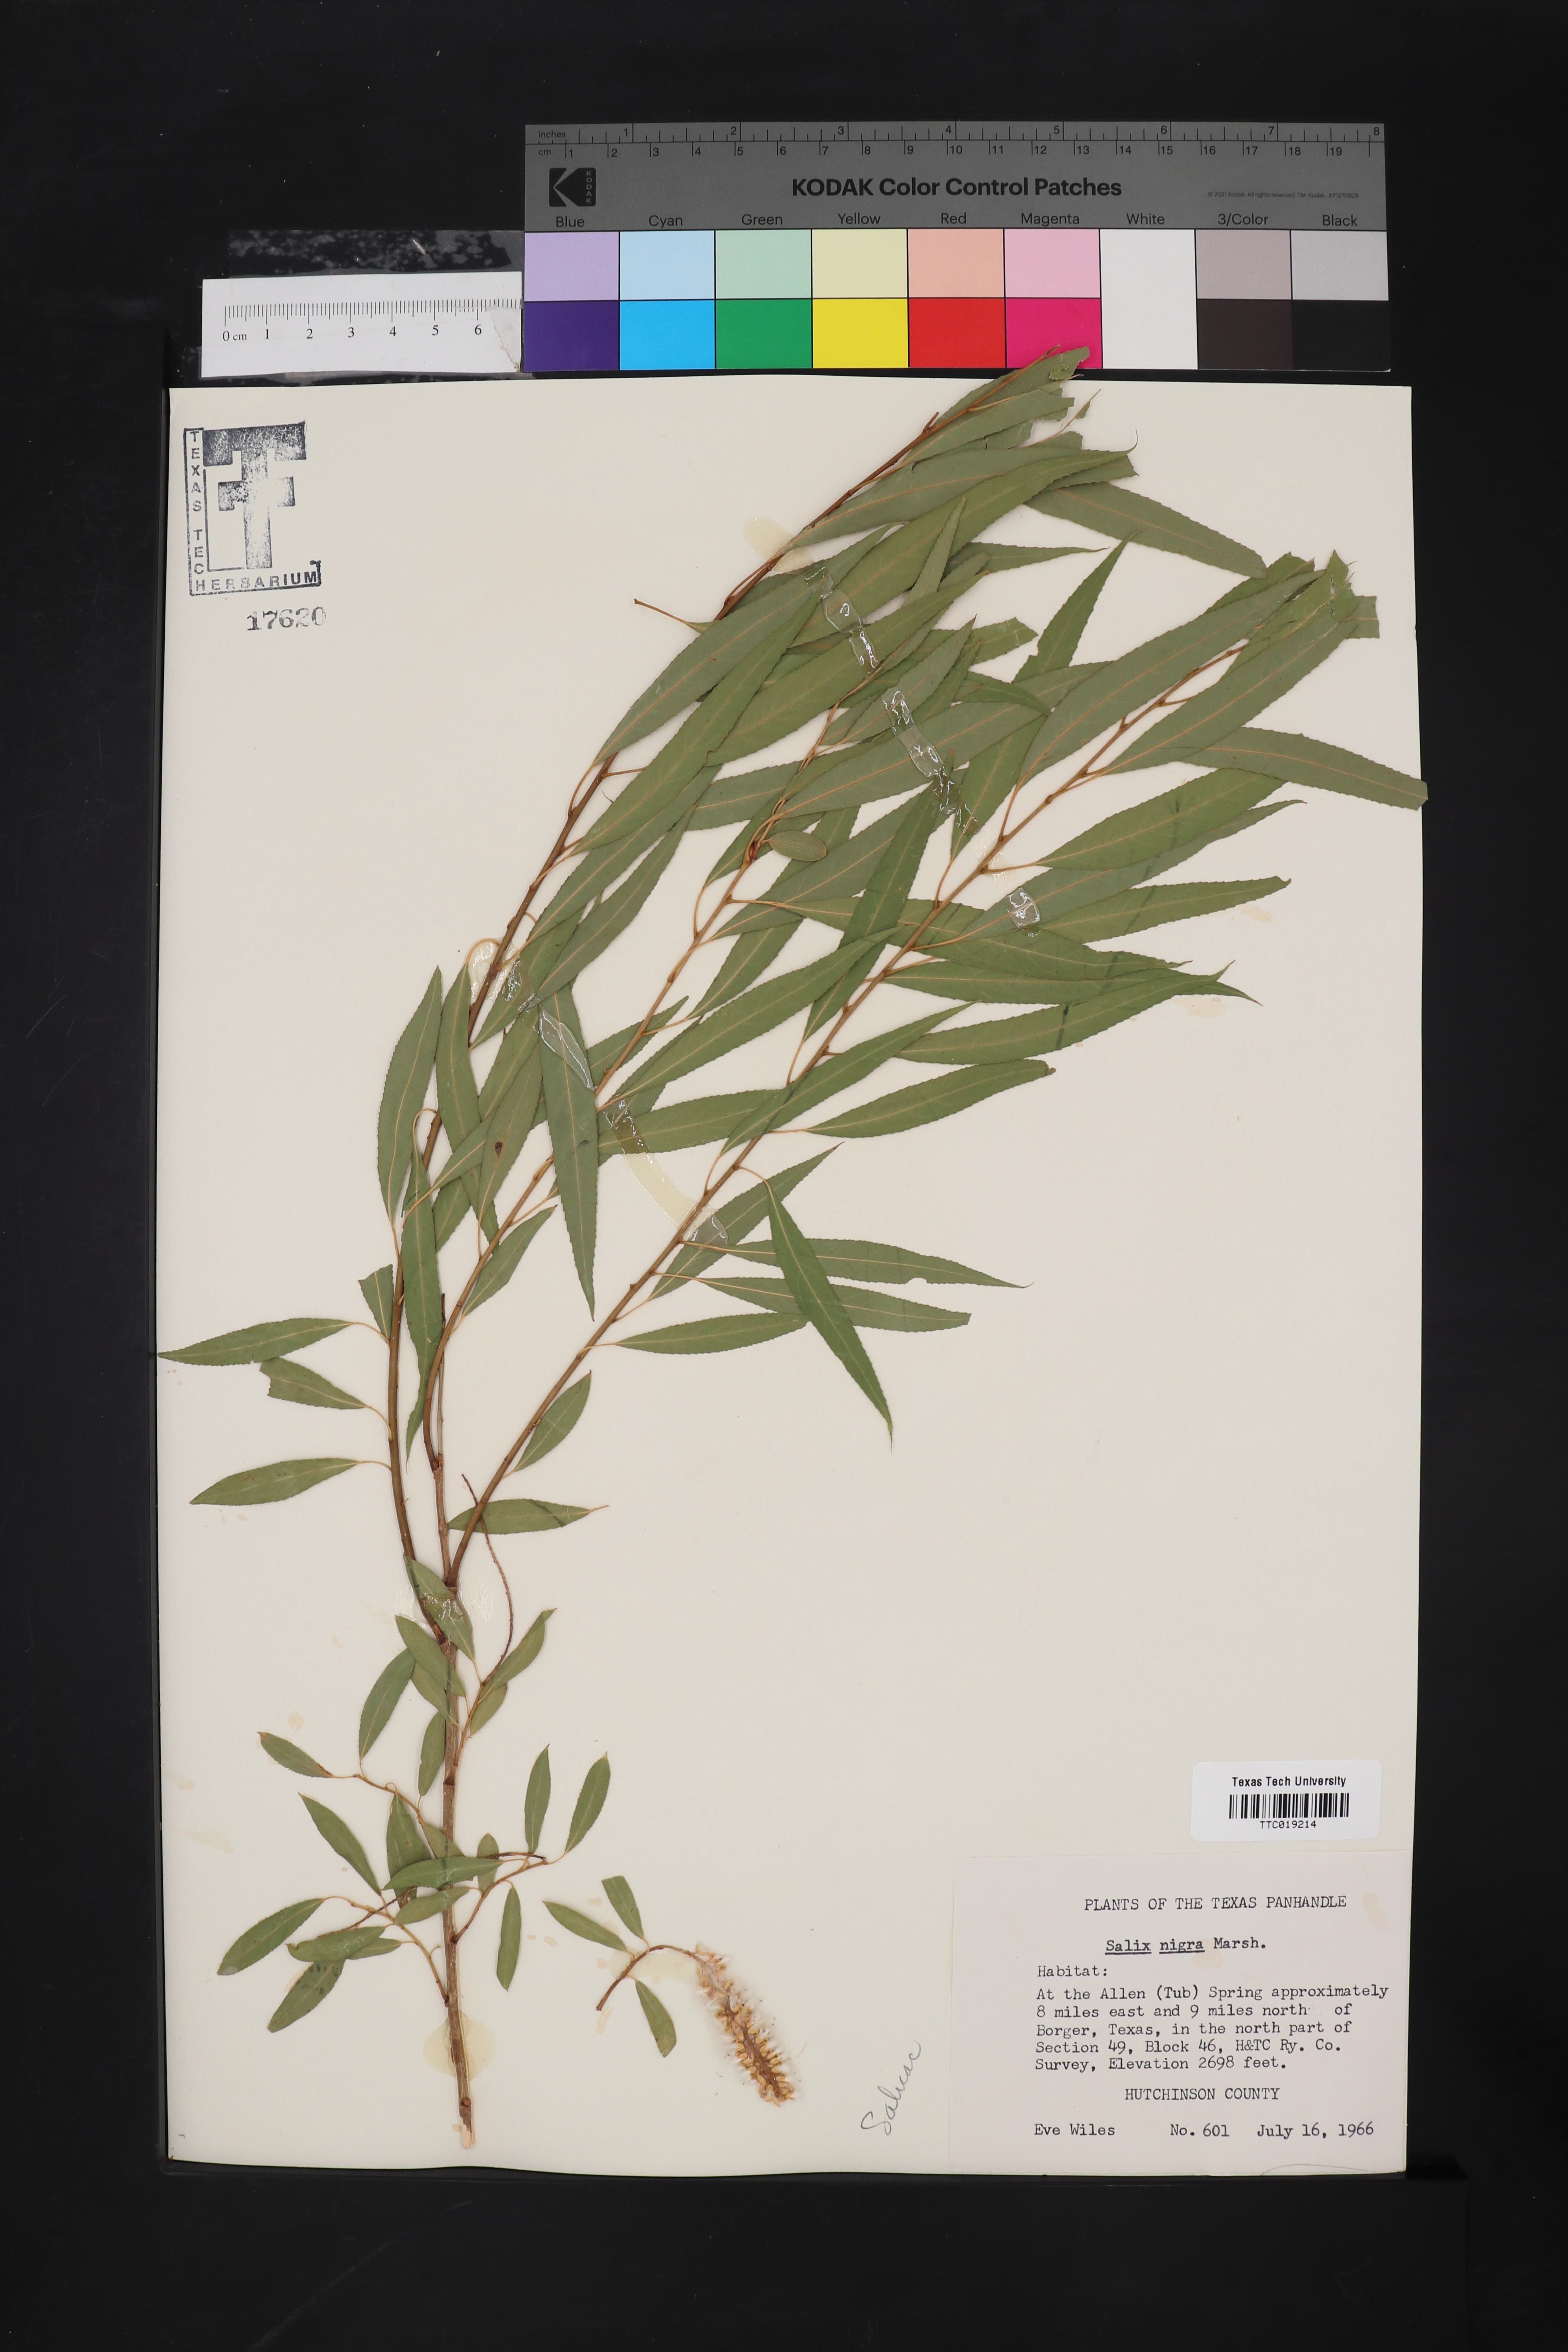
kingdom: Plantae
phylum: Tracheophyta
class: Magnoliopsida
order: Malpighiales
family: Salicaceae
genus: Salix
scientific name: Salix nigra
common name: Black willow
